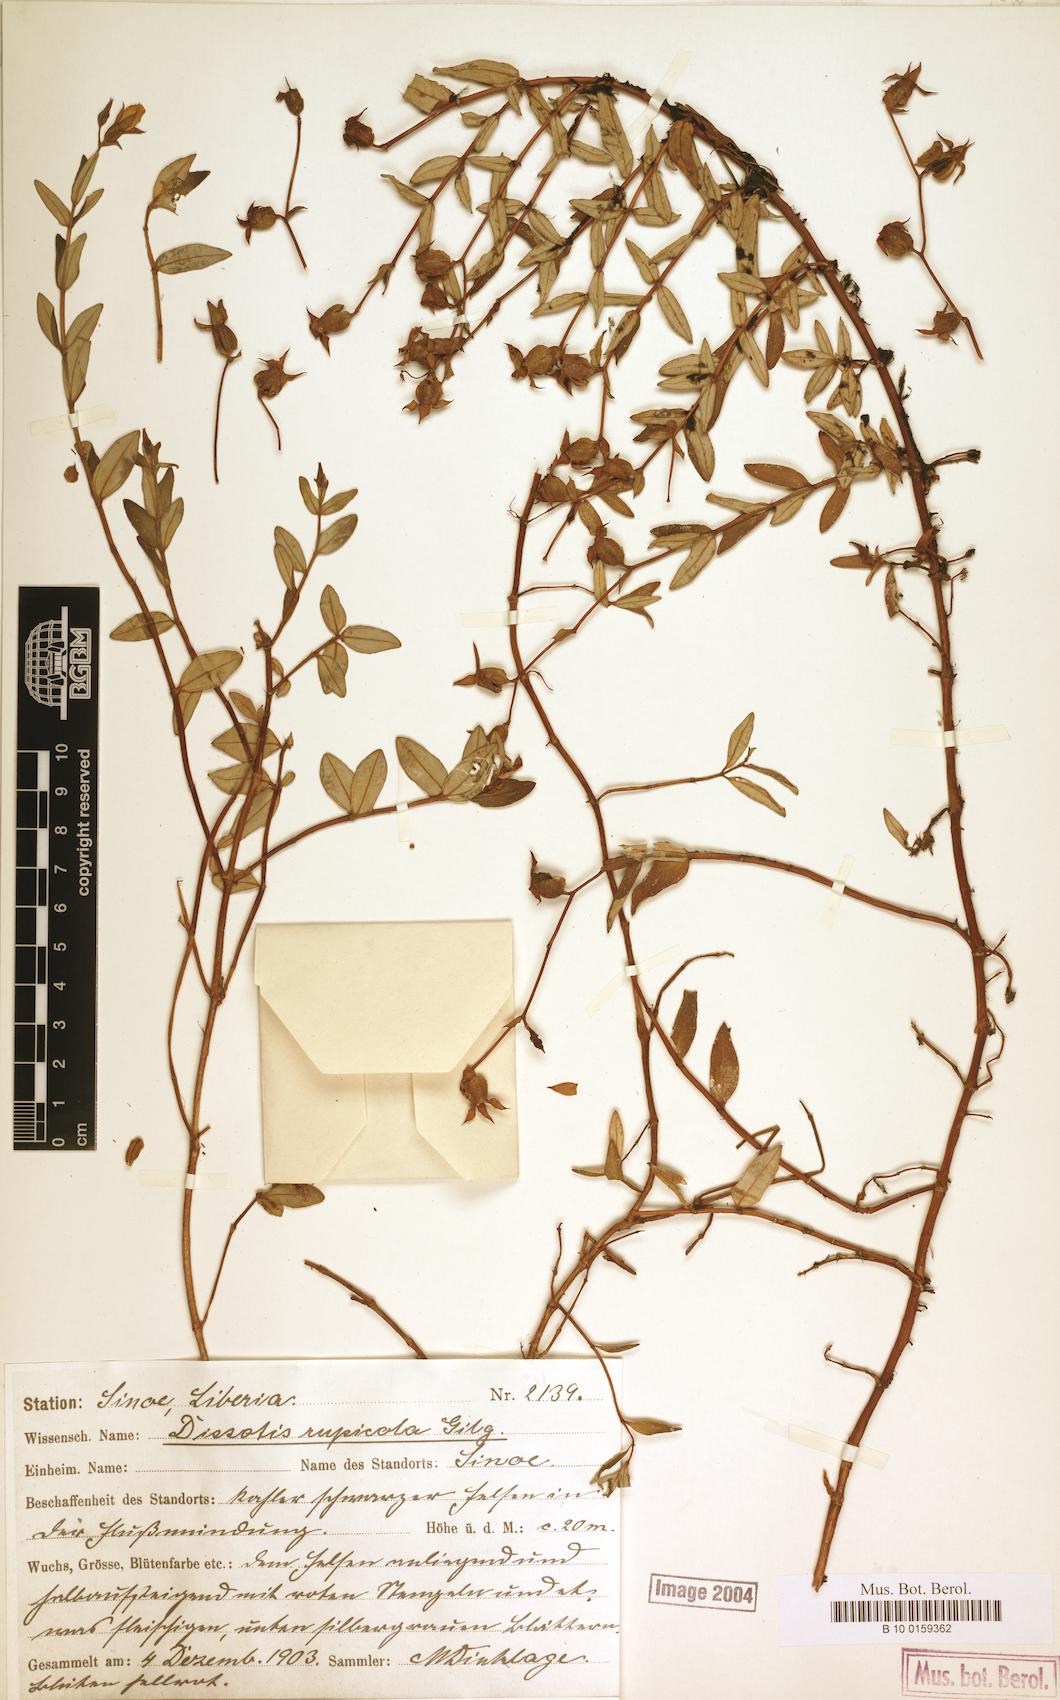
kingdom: Plantae
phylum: Tracheophyta
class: Magnoliopsida
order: Myrtales
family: Melastomataceae
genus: Guyonia
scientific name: Guyonia rupicola
